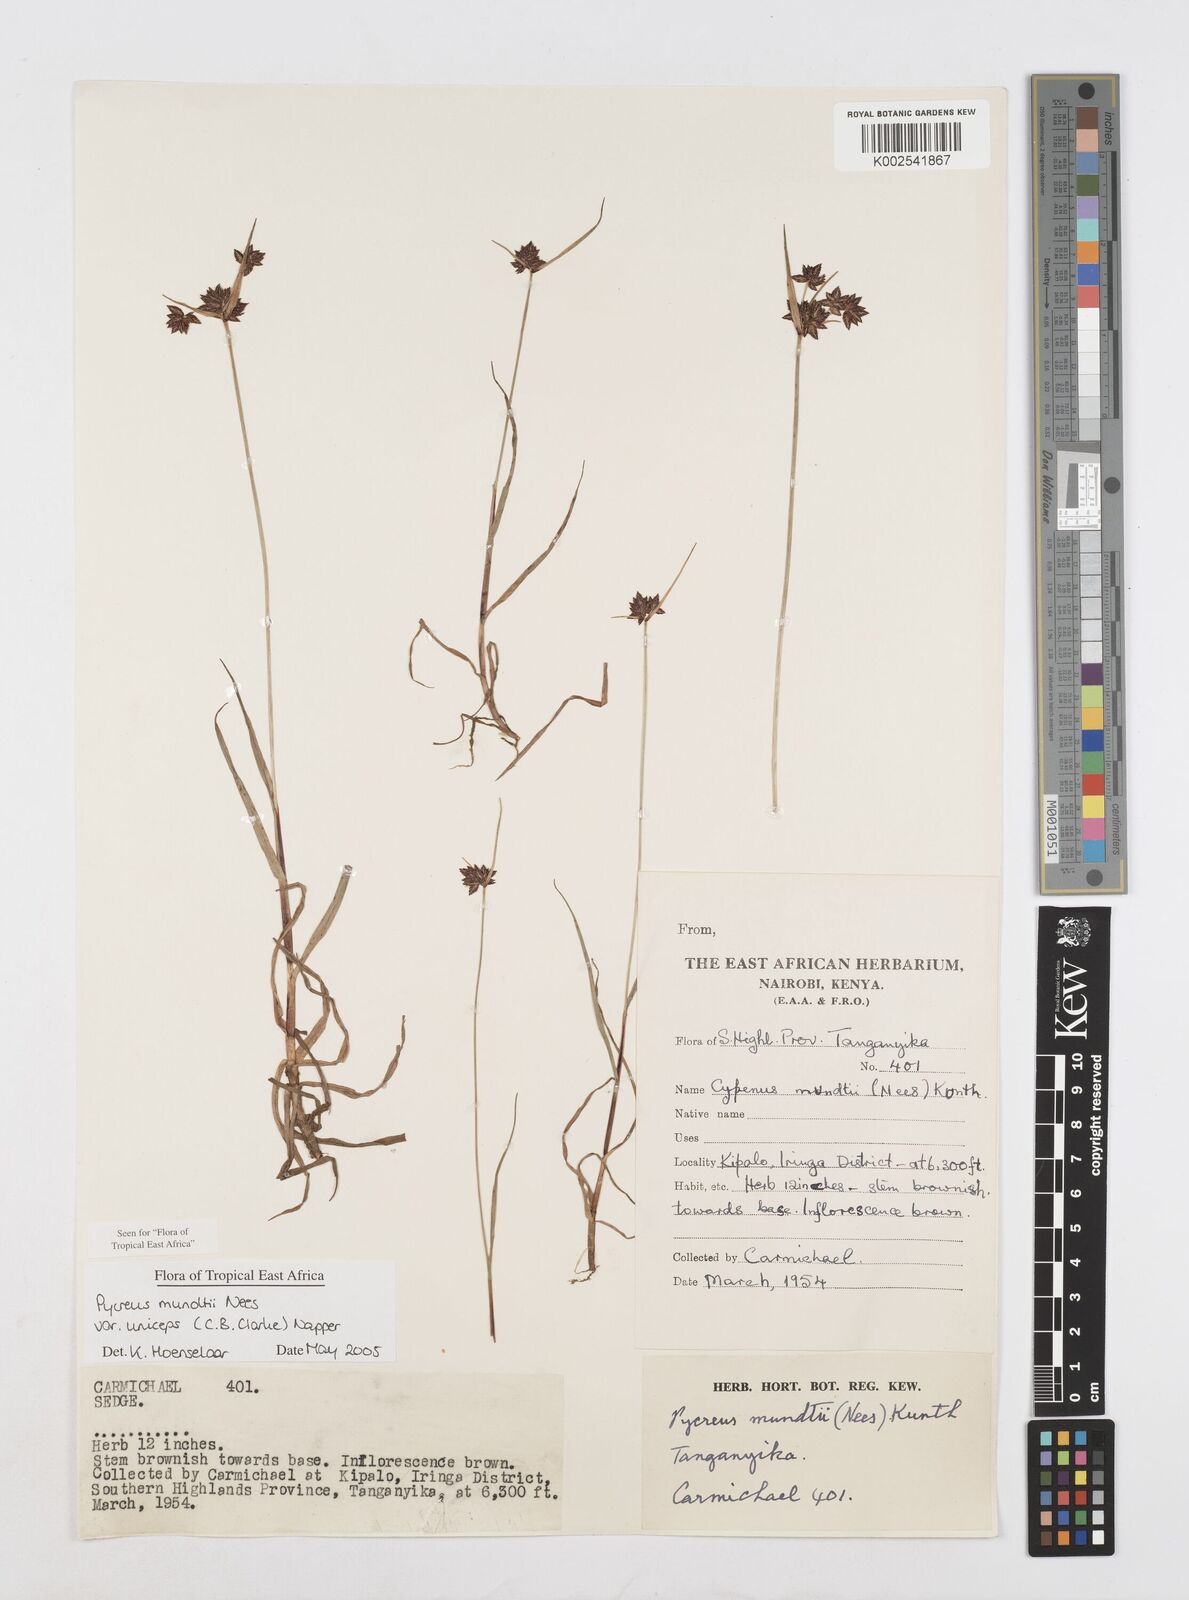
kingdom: Plantae
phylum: Tracheophyta
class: Liliopsida
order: Poales
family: Cyperaceae
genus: Cyperus
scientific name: Cyperus mundii
